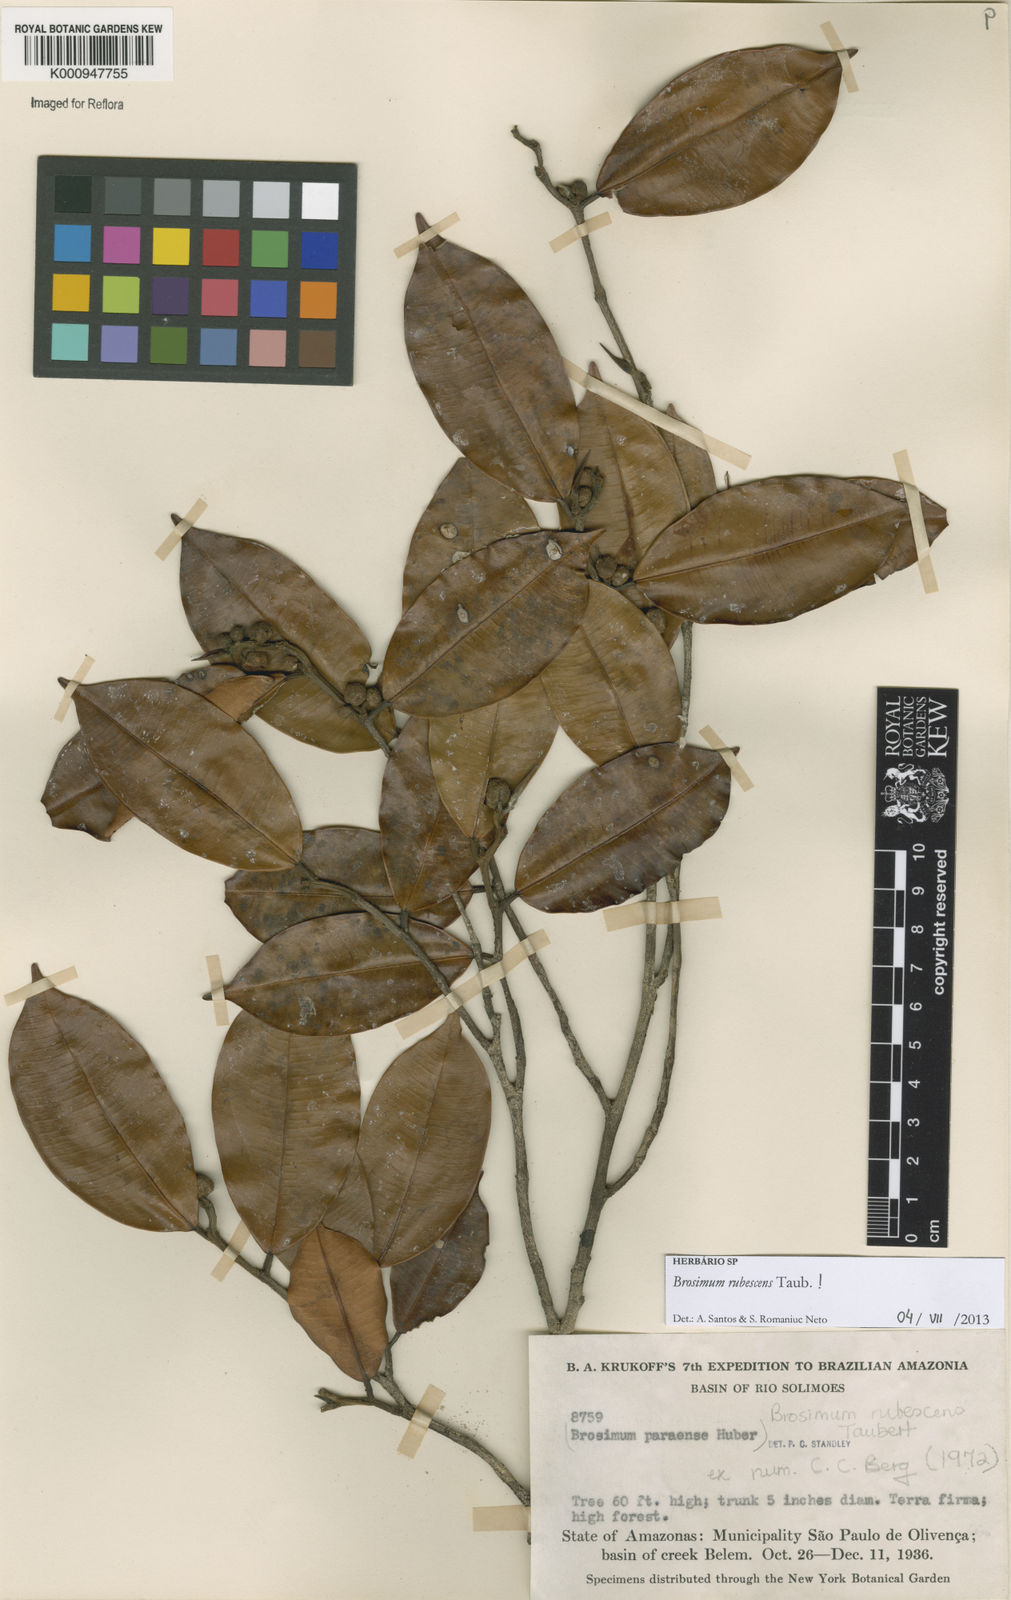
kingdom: Plantae
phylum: Tracheophyta
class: Magnoliopsida
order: Rosales
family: Moraceae
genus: Brosimum
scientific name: Brosimum rubescens
